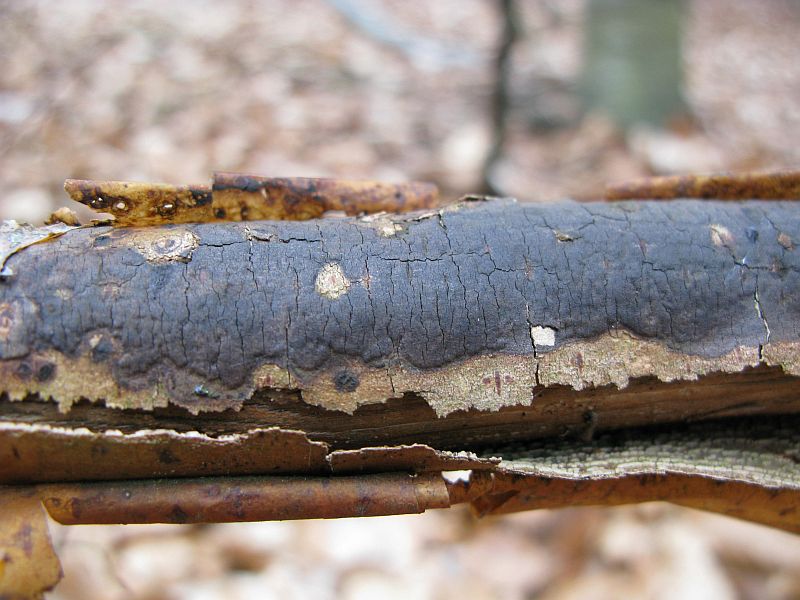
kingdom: Fungi
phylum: Ascomycota
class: Sordariomycetes
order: Xylariales
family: Diatrypaceae
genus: Diatrype
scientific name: Diatrype decorticata
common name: barksprænger-kulskorpe
